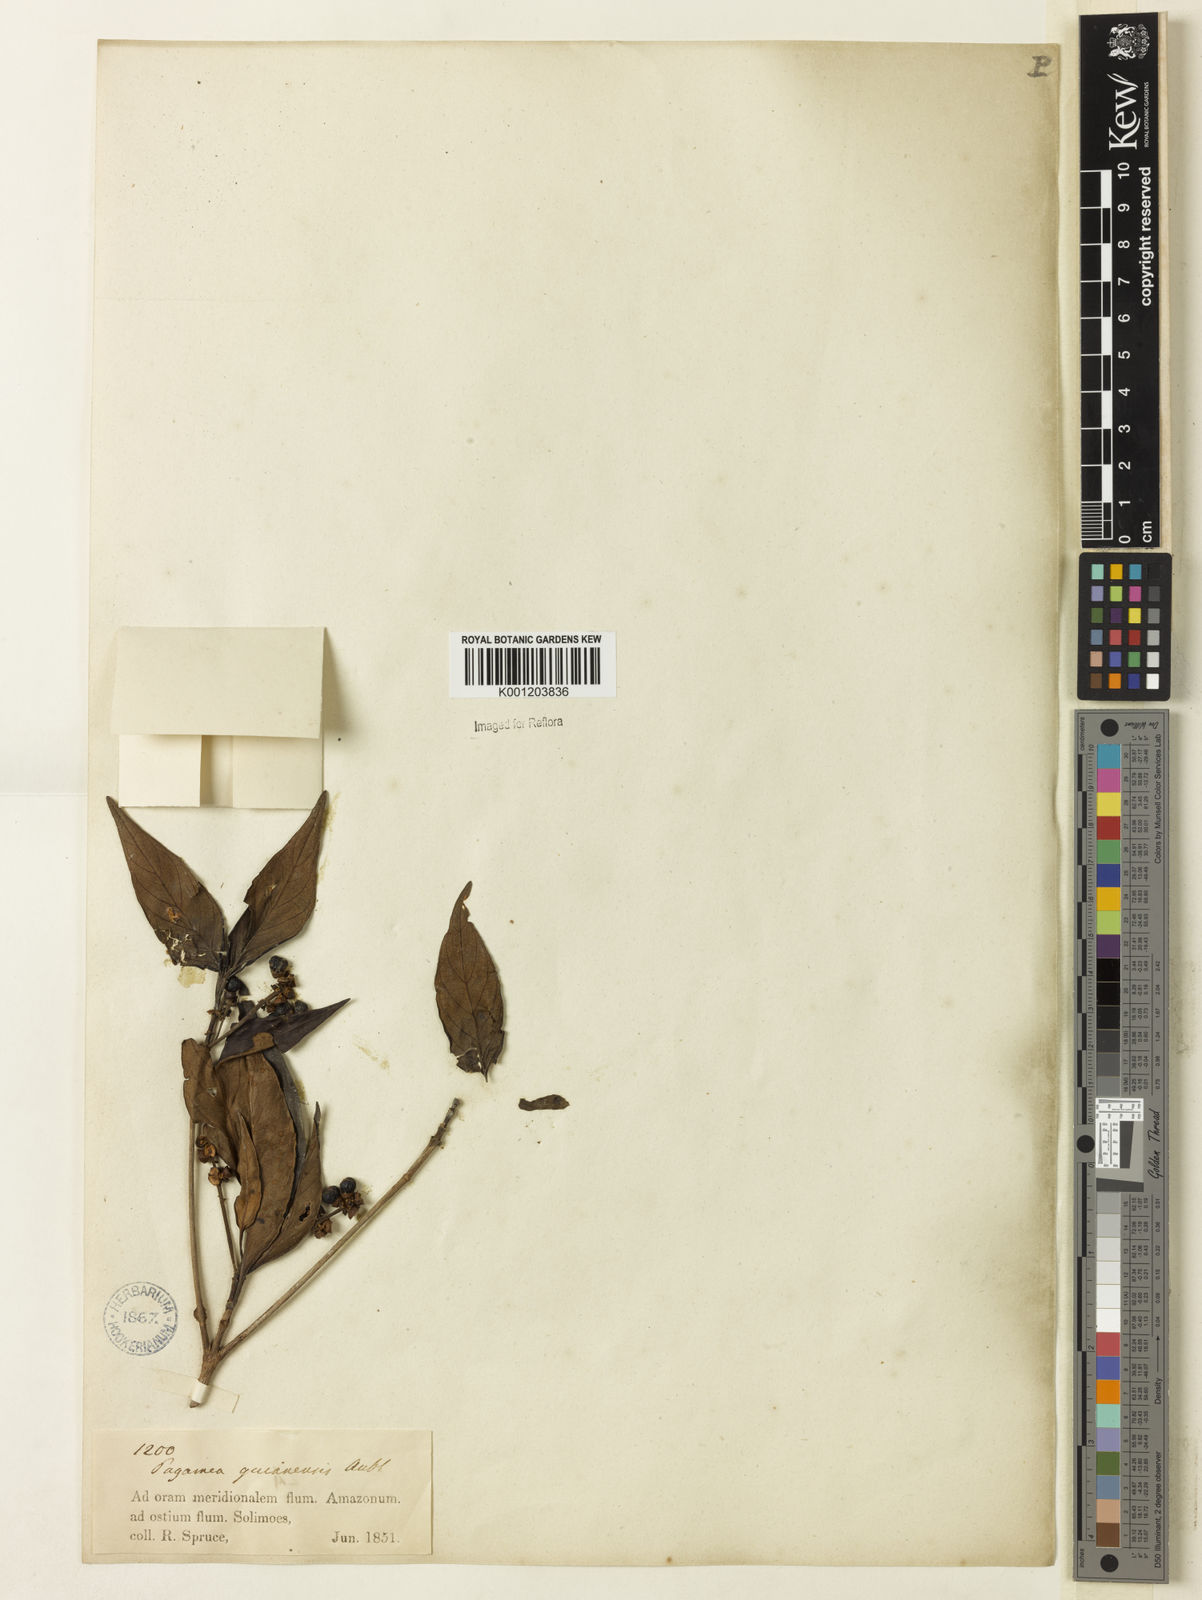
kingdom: Plantae
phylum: Tracheophyta
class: Magnoliopsida
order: Gentianales
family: Rubiaceae
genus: Pagamea
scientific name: Pagamea guianensis
